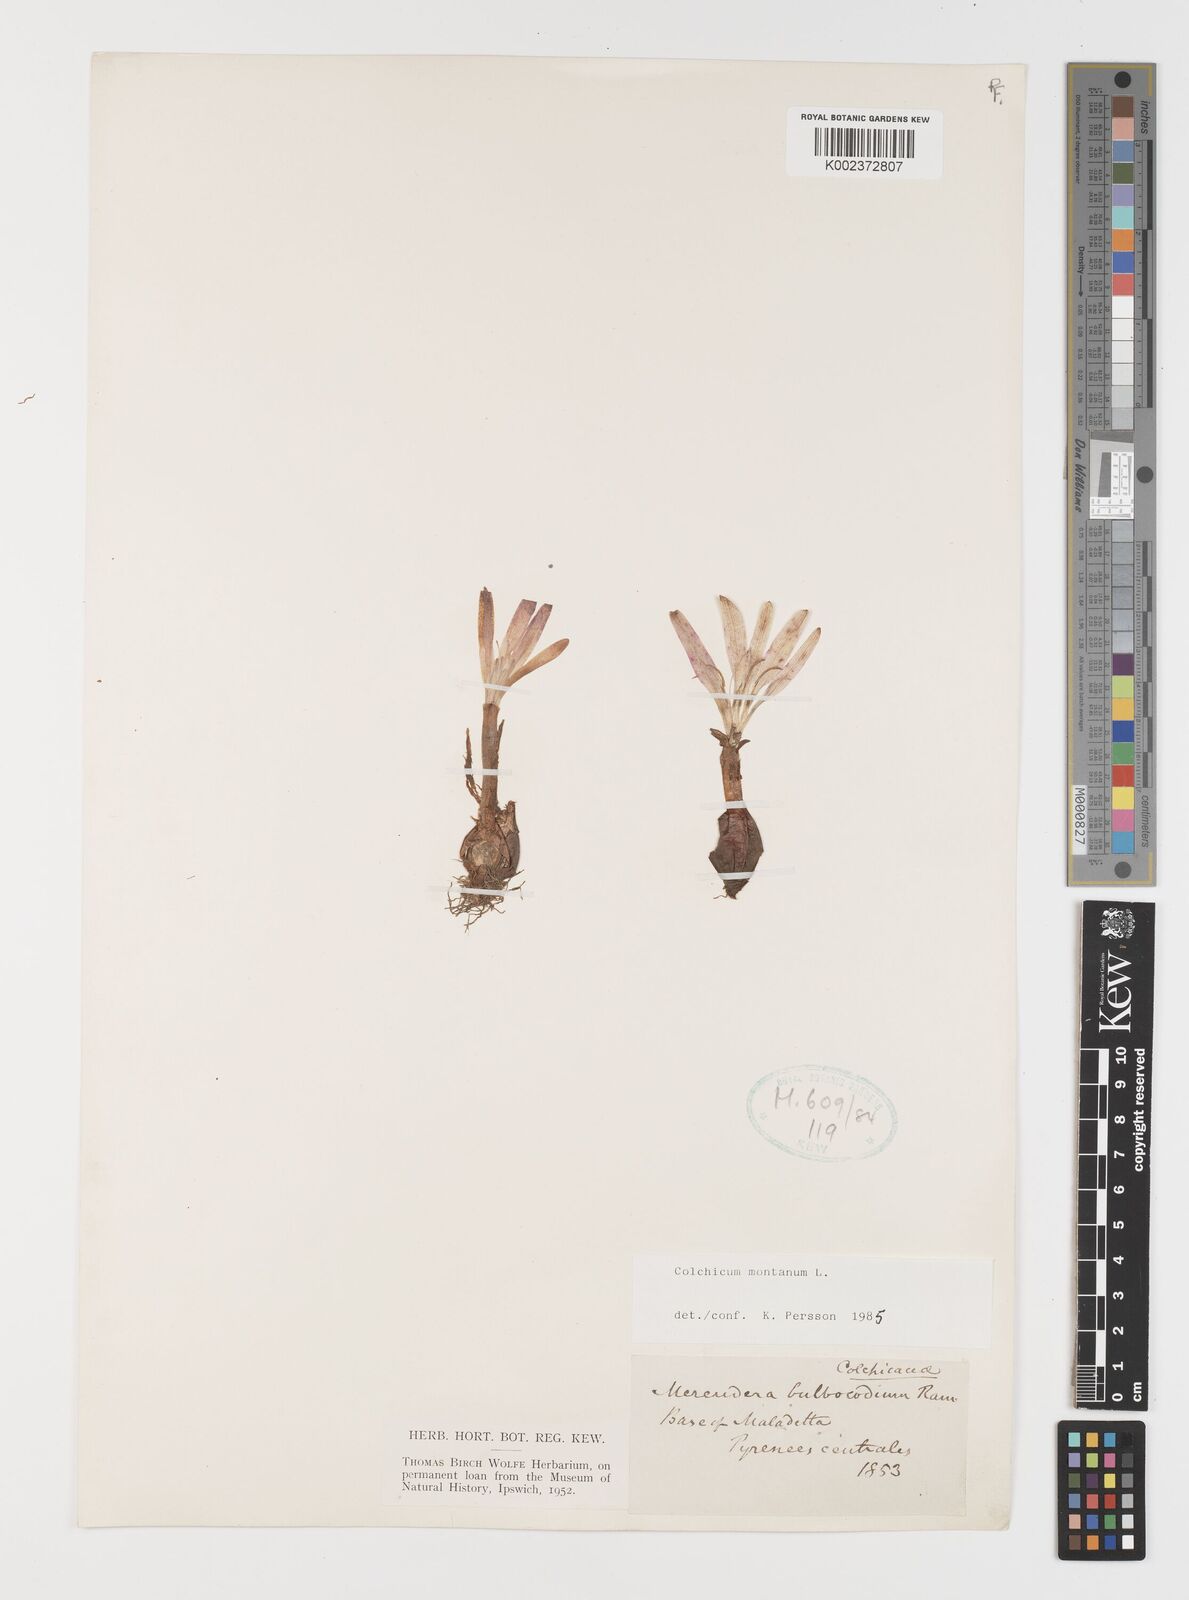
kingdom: Plantae
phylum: Tracheophyta
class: Liliopsida
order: Liliales
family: Colchicaceae
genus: Colchicum
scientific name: Colchicum montanum
